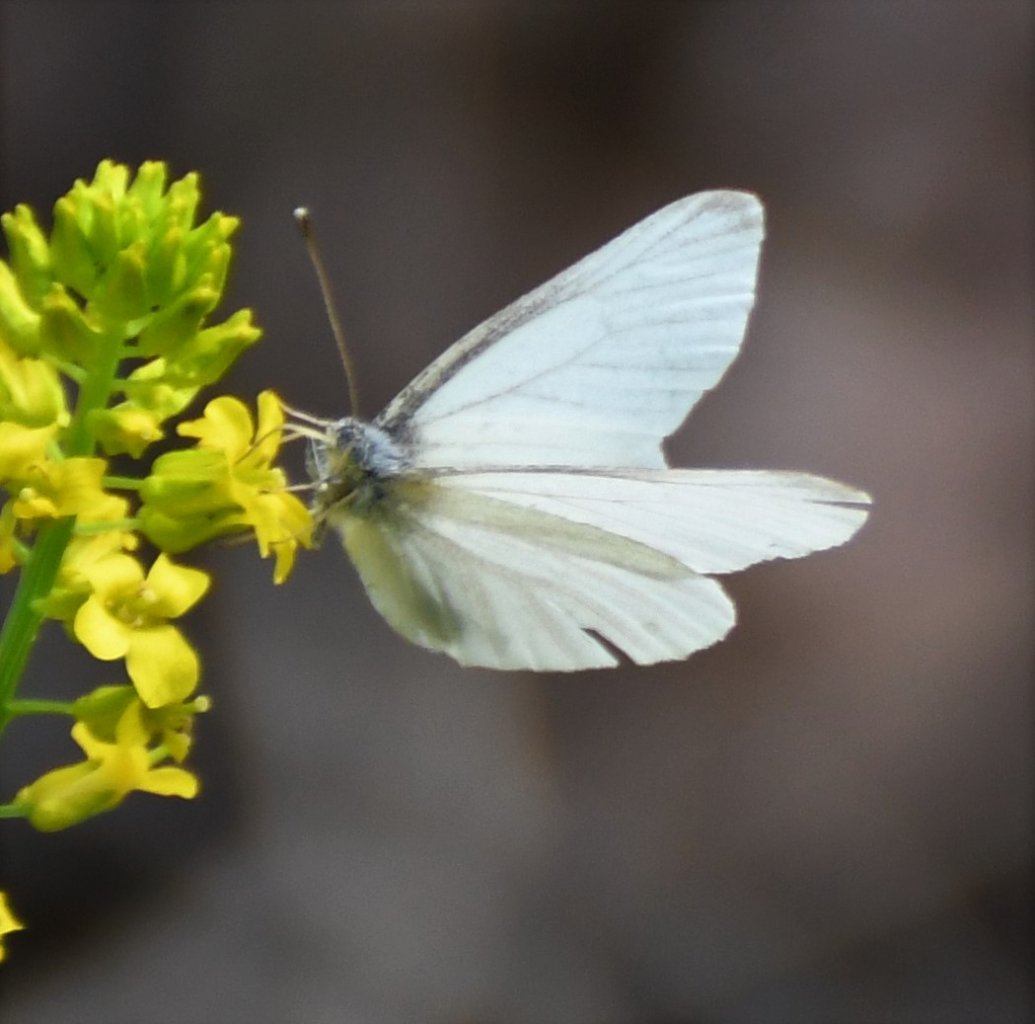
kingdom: Animalia
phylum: Arthropoda
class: Insecta
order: Lepidoptera
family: Pieridae
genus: Pieris
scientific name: Pieris virginiensis
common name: West Virginia White
